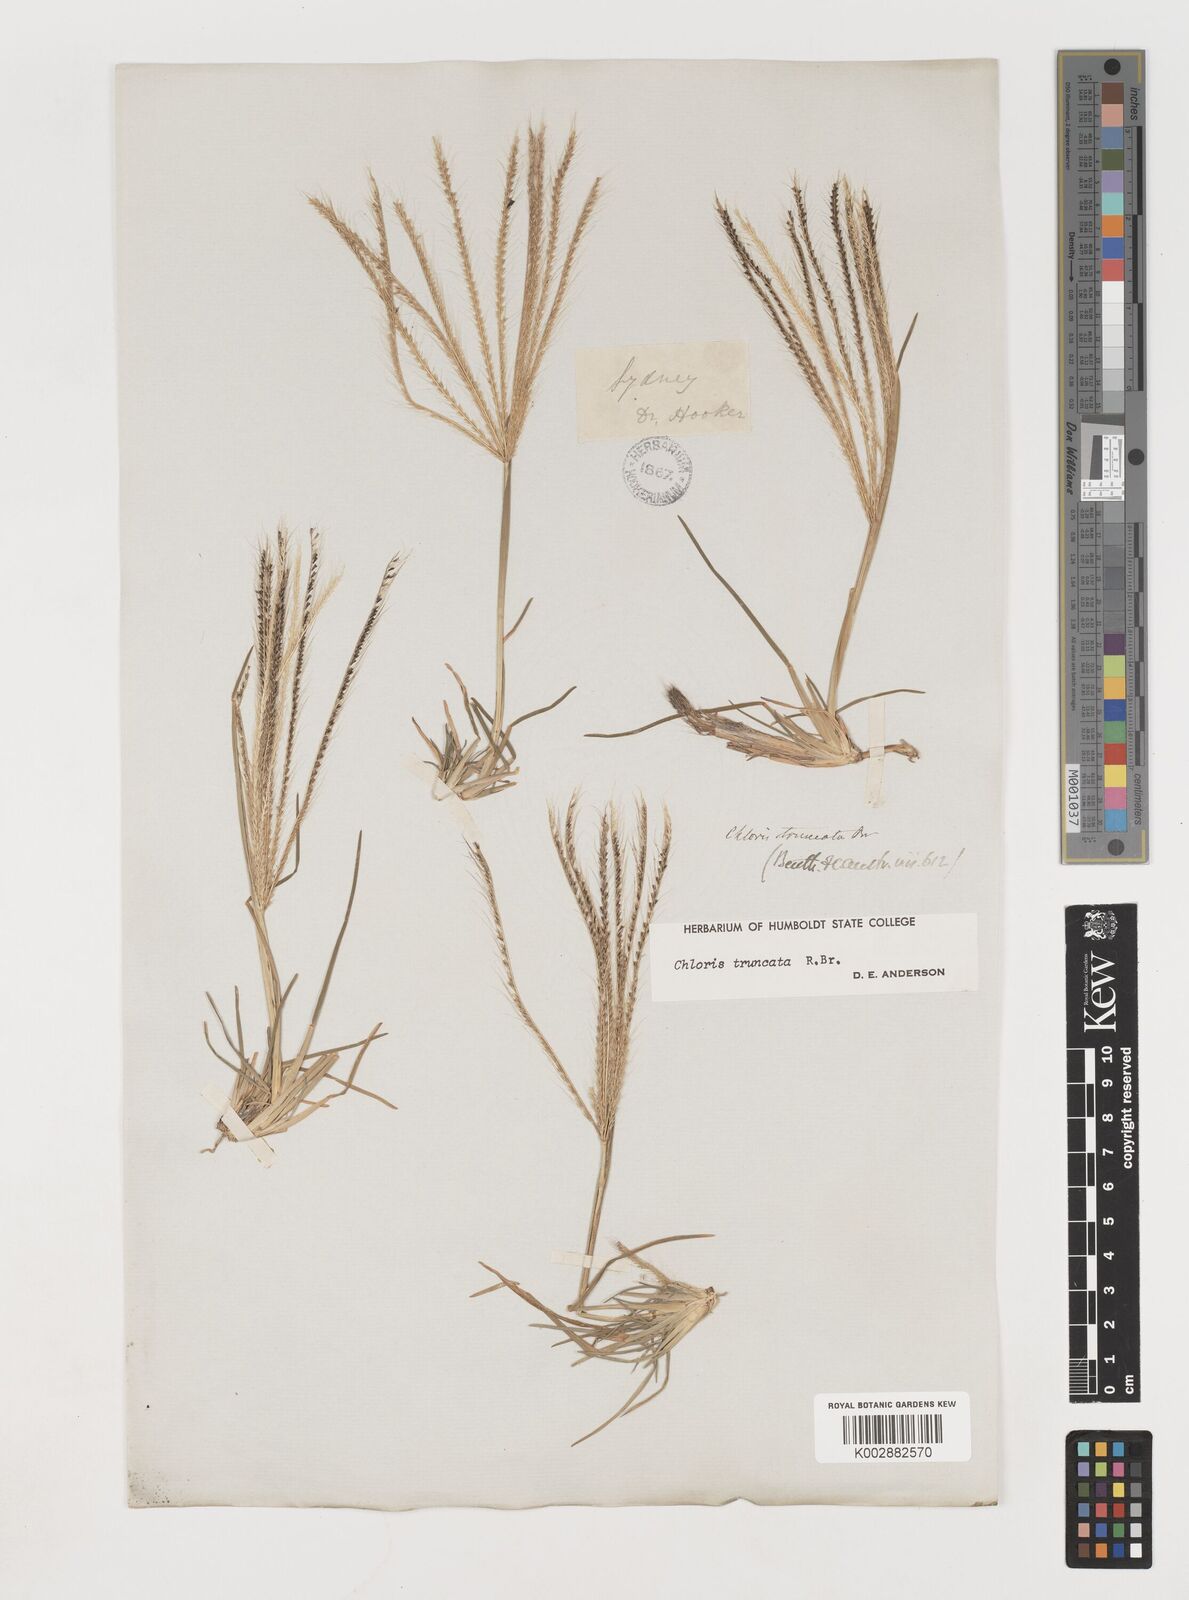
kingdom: Plantae
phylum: Tracheophyta
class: Liliopsida
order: Poales
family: Poaceae
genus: Chloris
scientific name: Chloris truncata
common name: Windmill-grass
